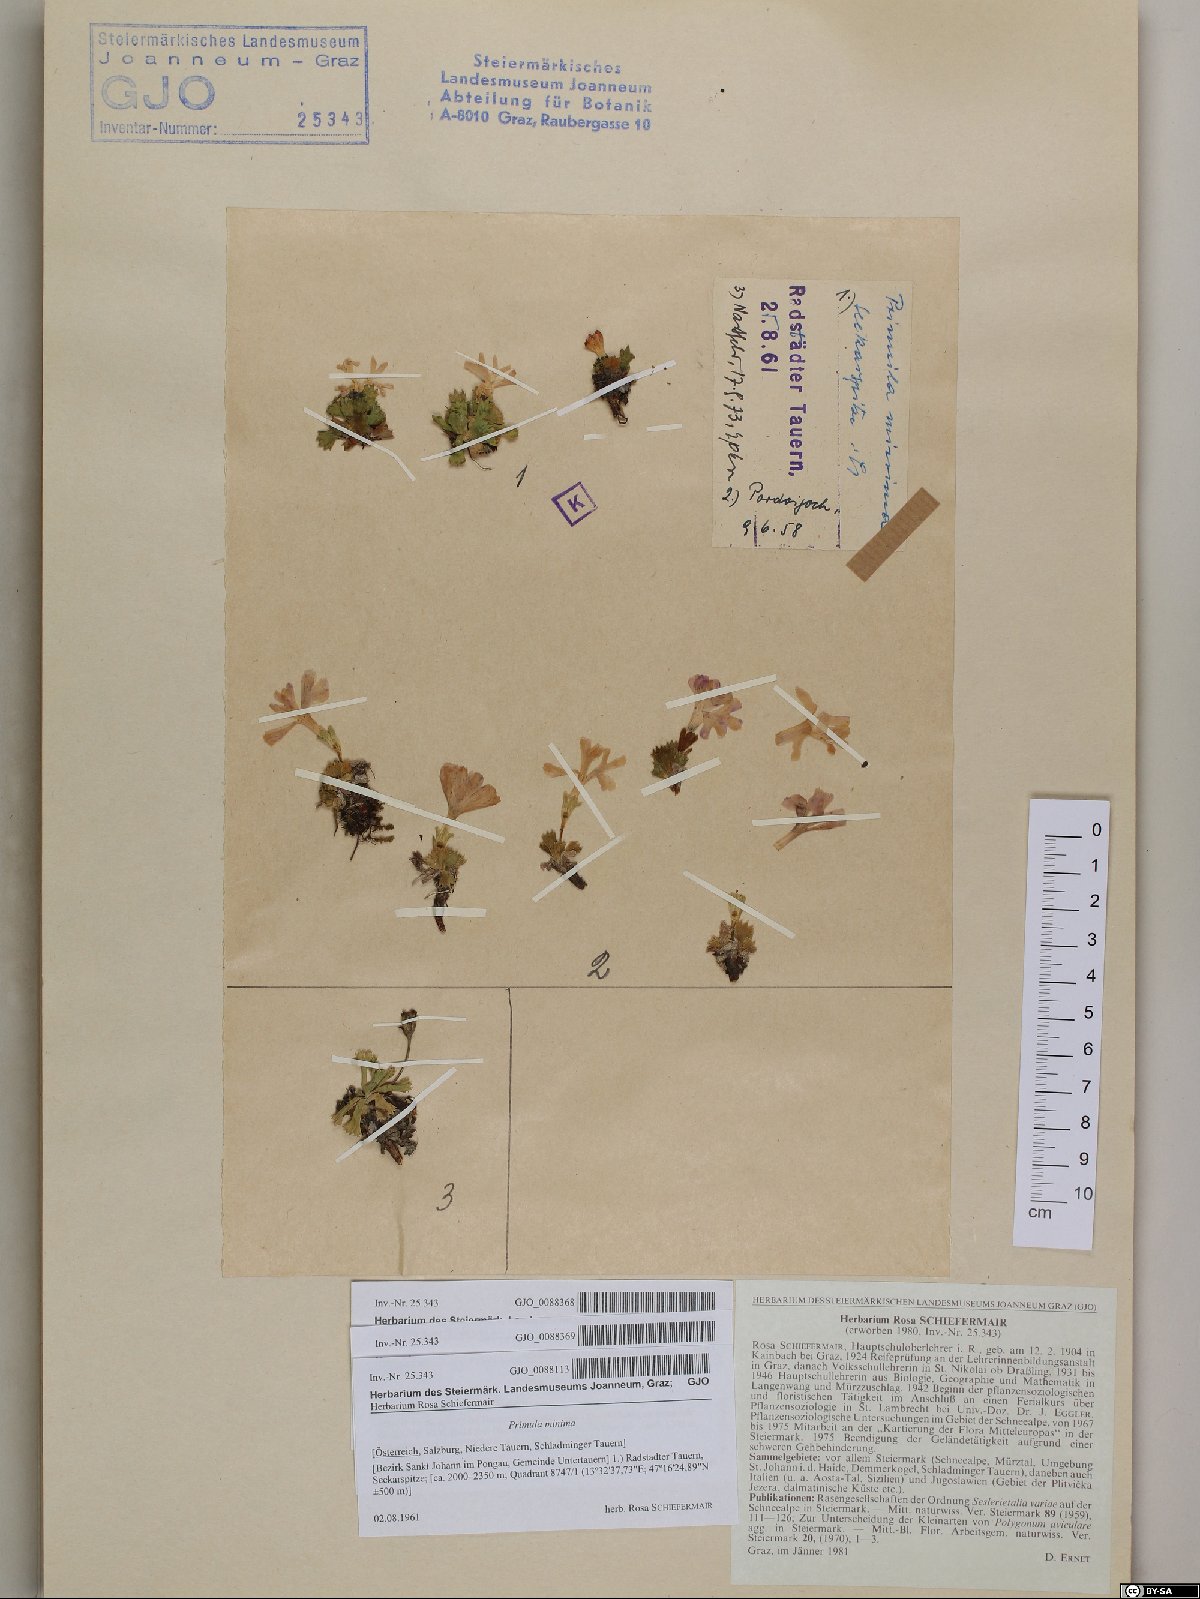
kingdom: Plantae
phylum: Tracheophyta
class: Magnoliopsida
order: Ericales
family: Primulaceae
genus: Primula
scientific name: Primula minima
